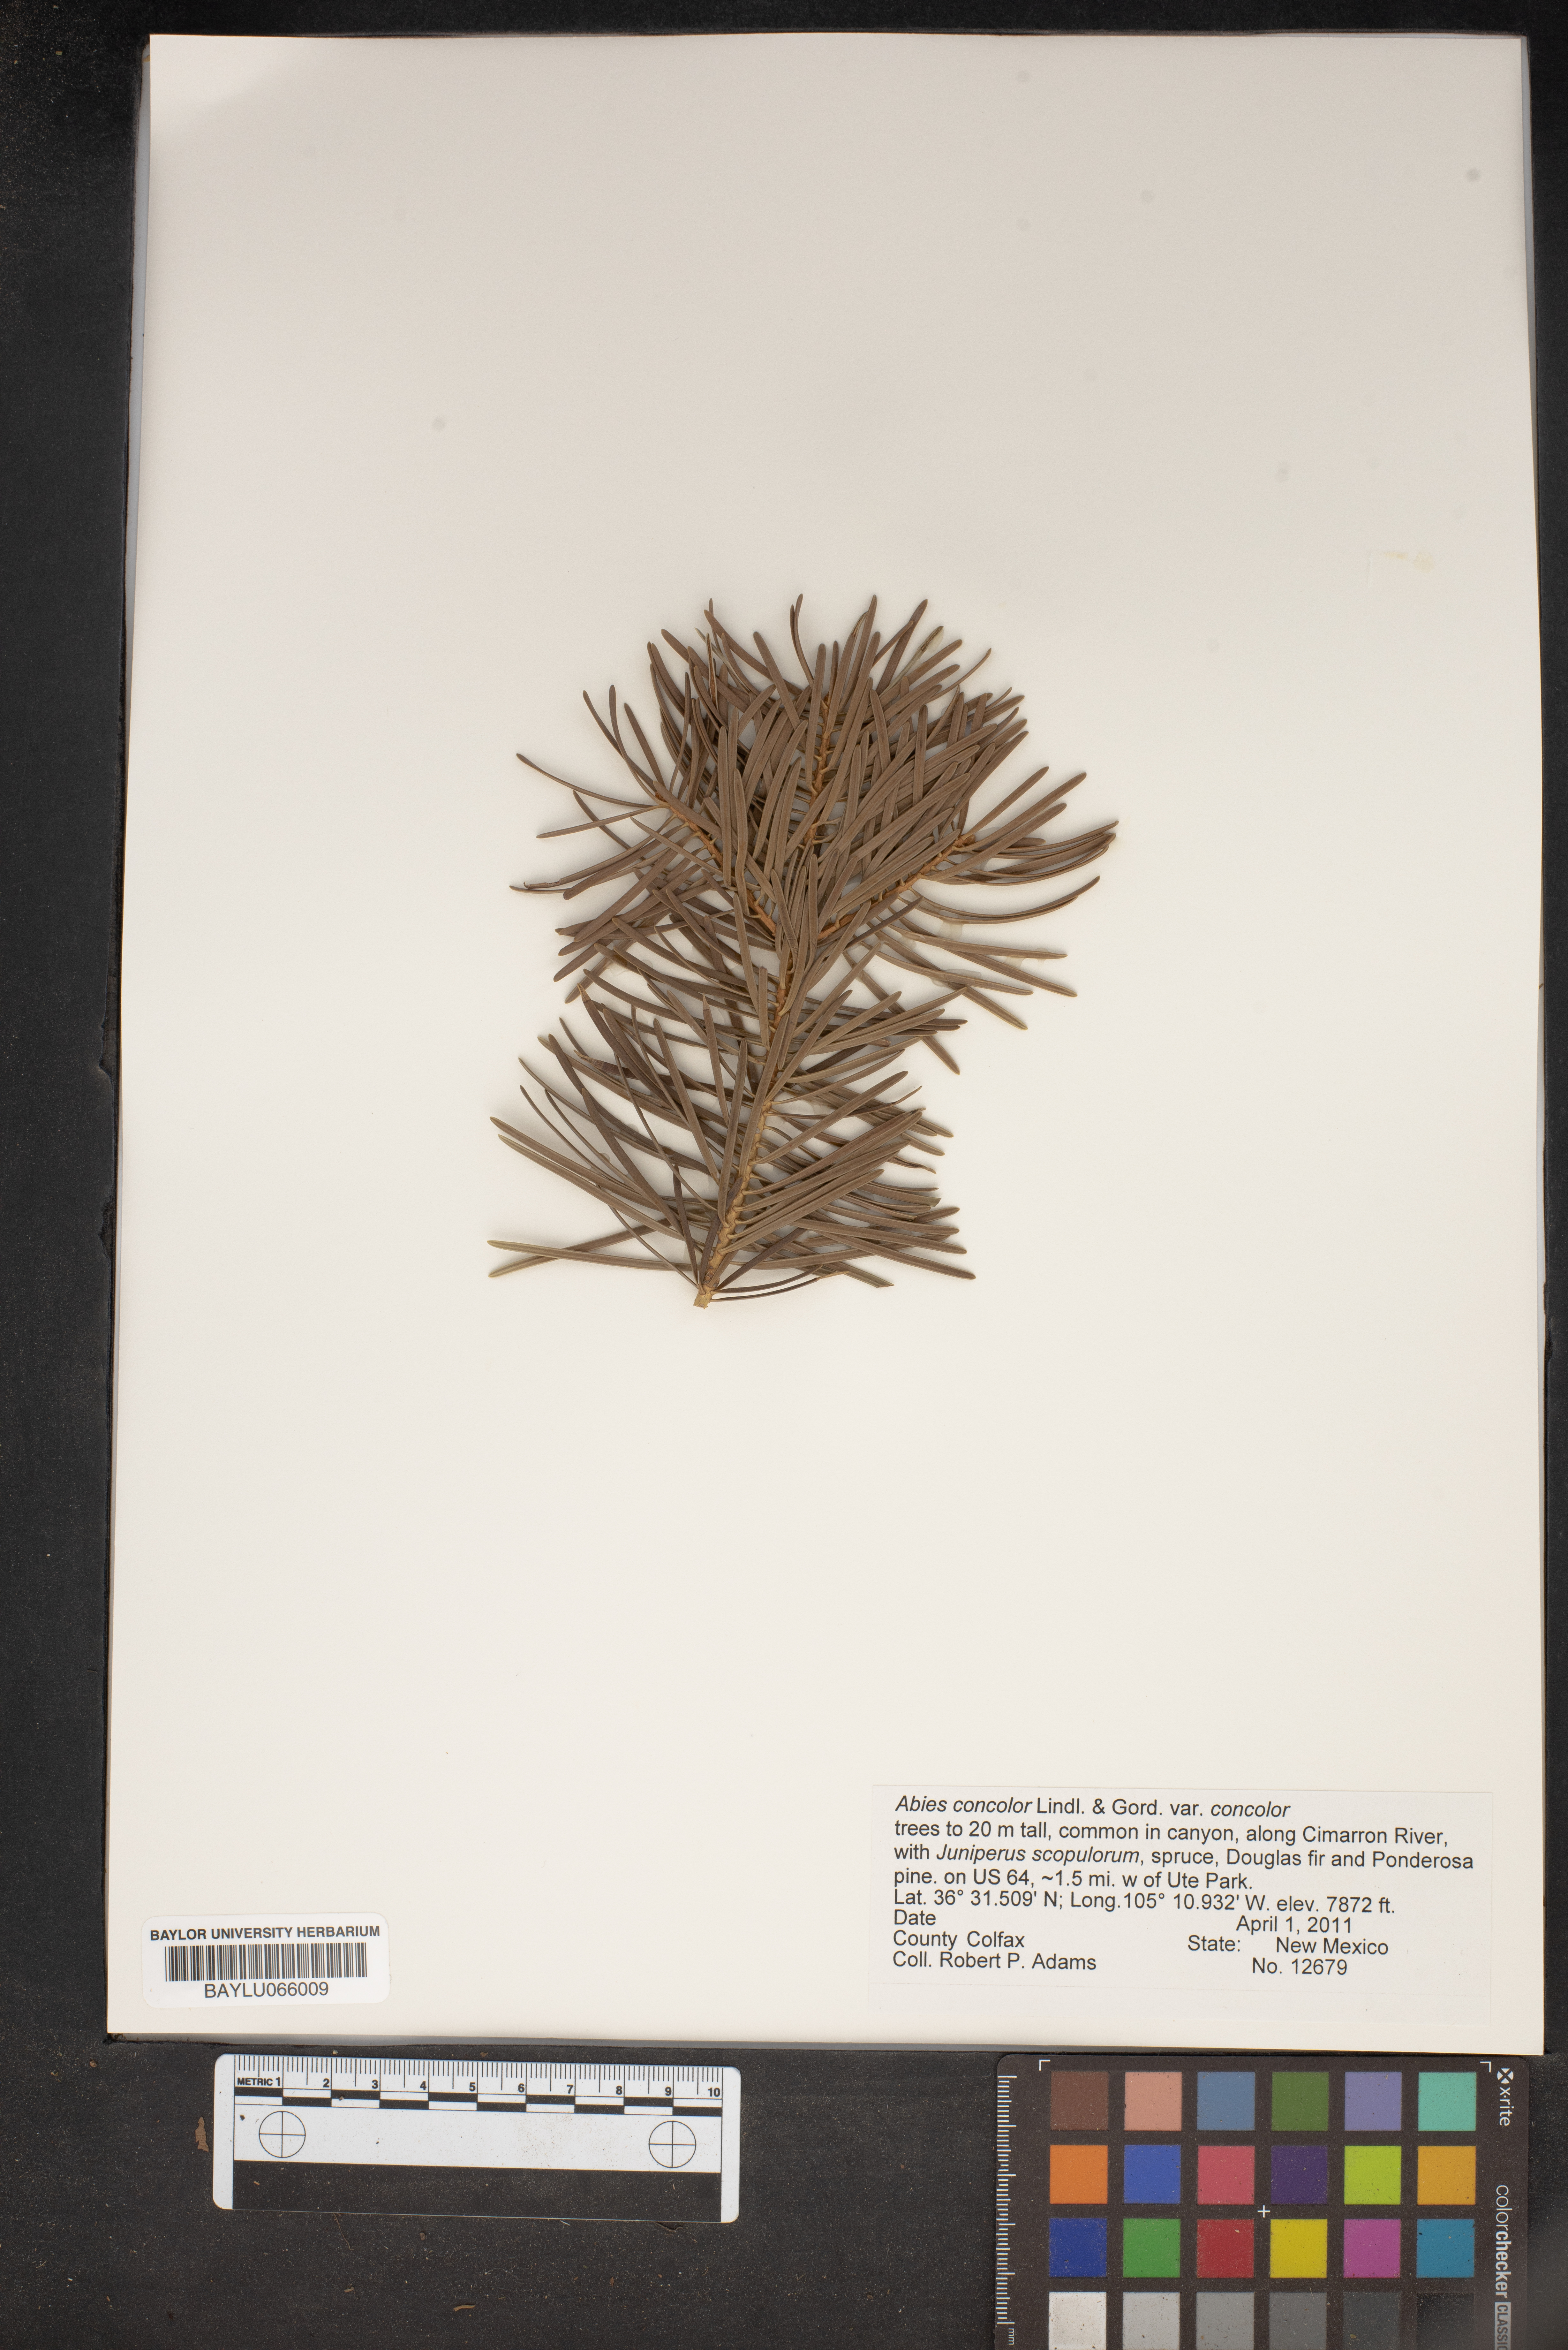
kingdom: Plantae
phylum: Tracheophyta
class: Pinopsida
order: Pinales
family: Pinaceae
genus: Abies
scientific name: Abies concolor
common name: Colorado fir
